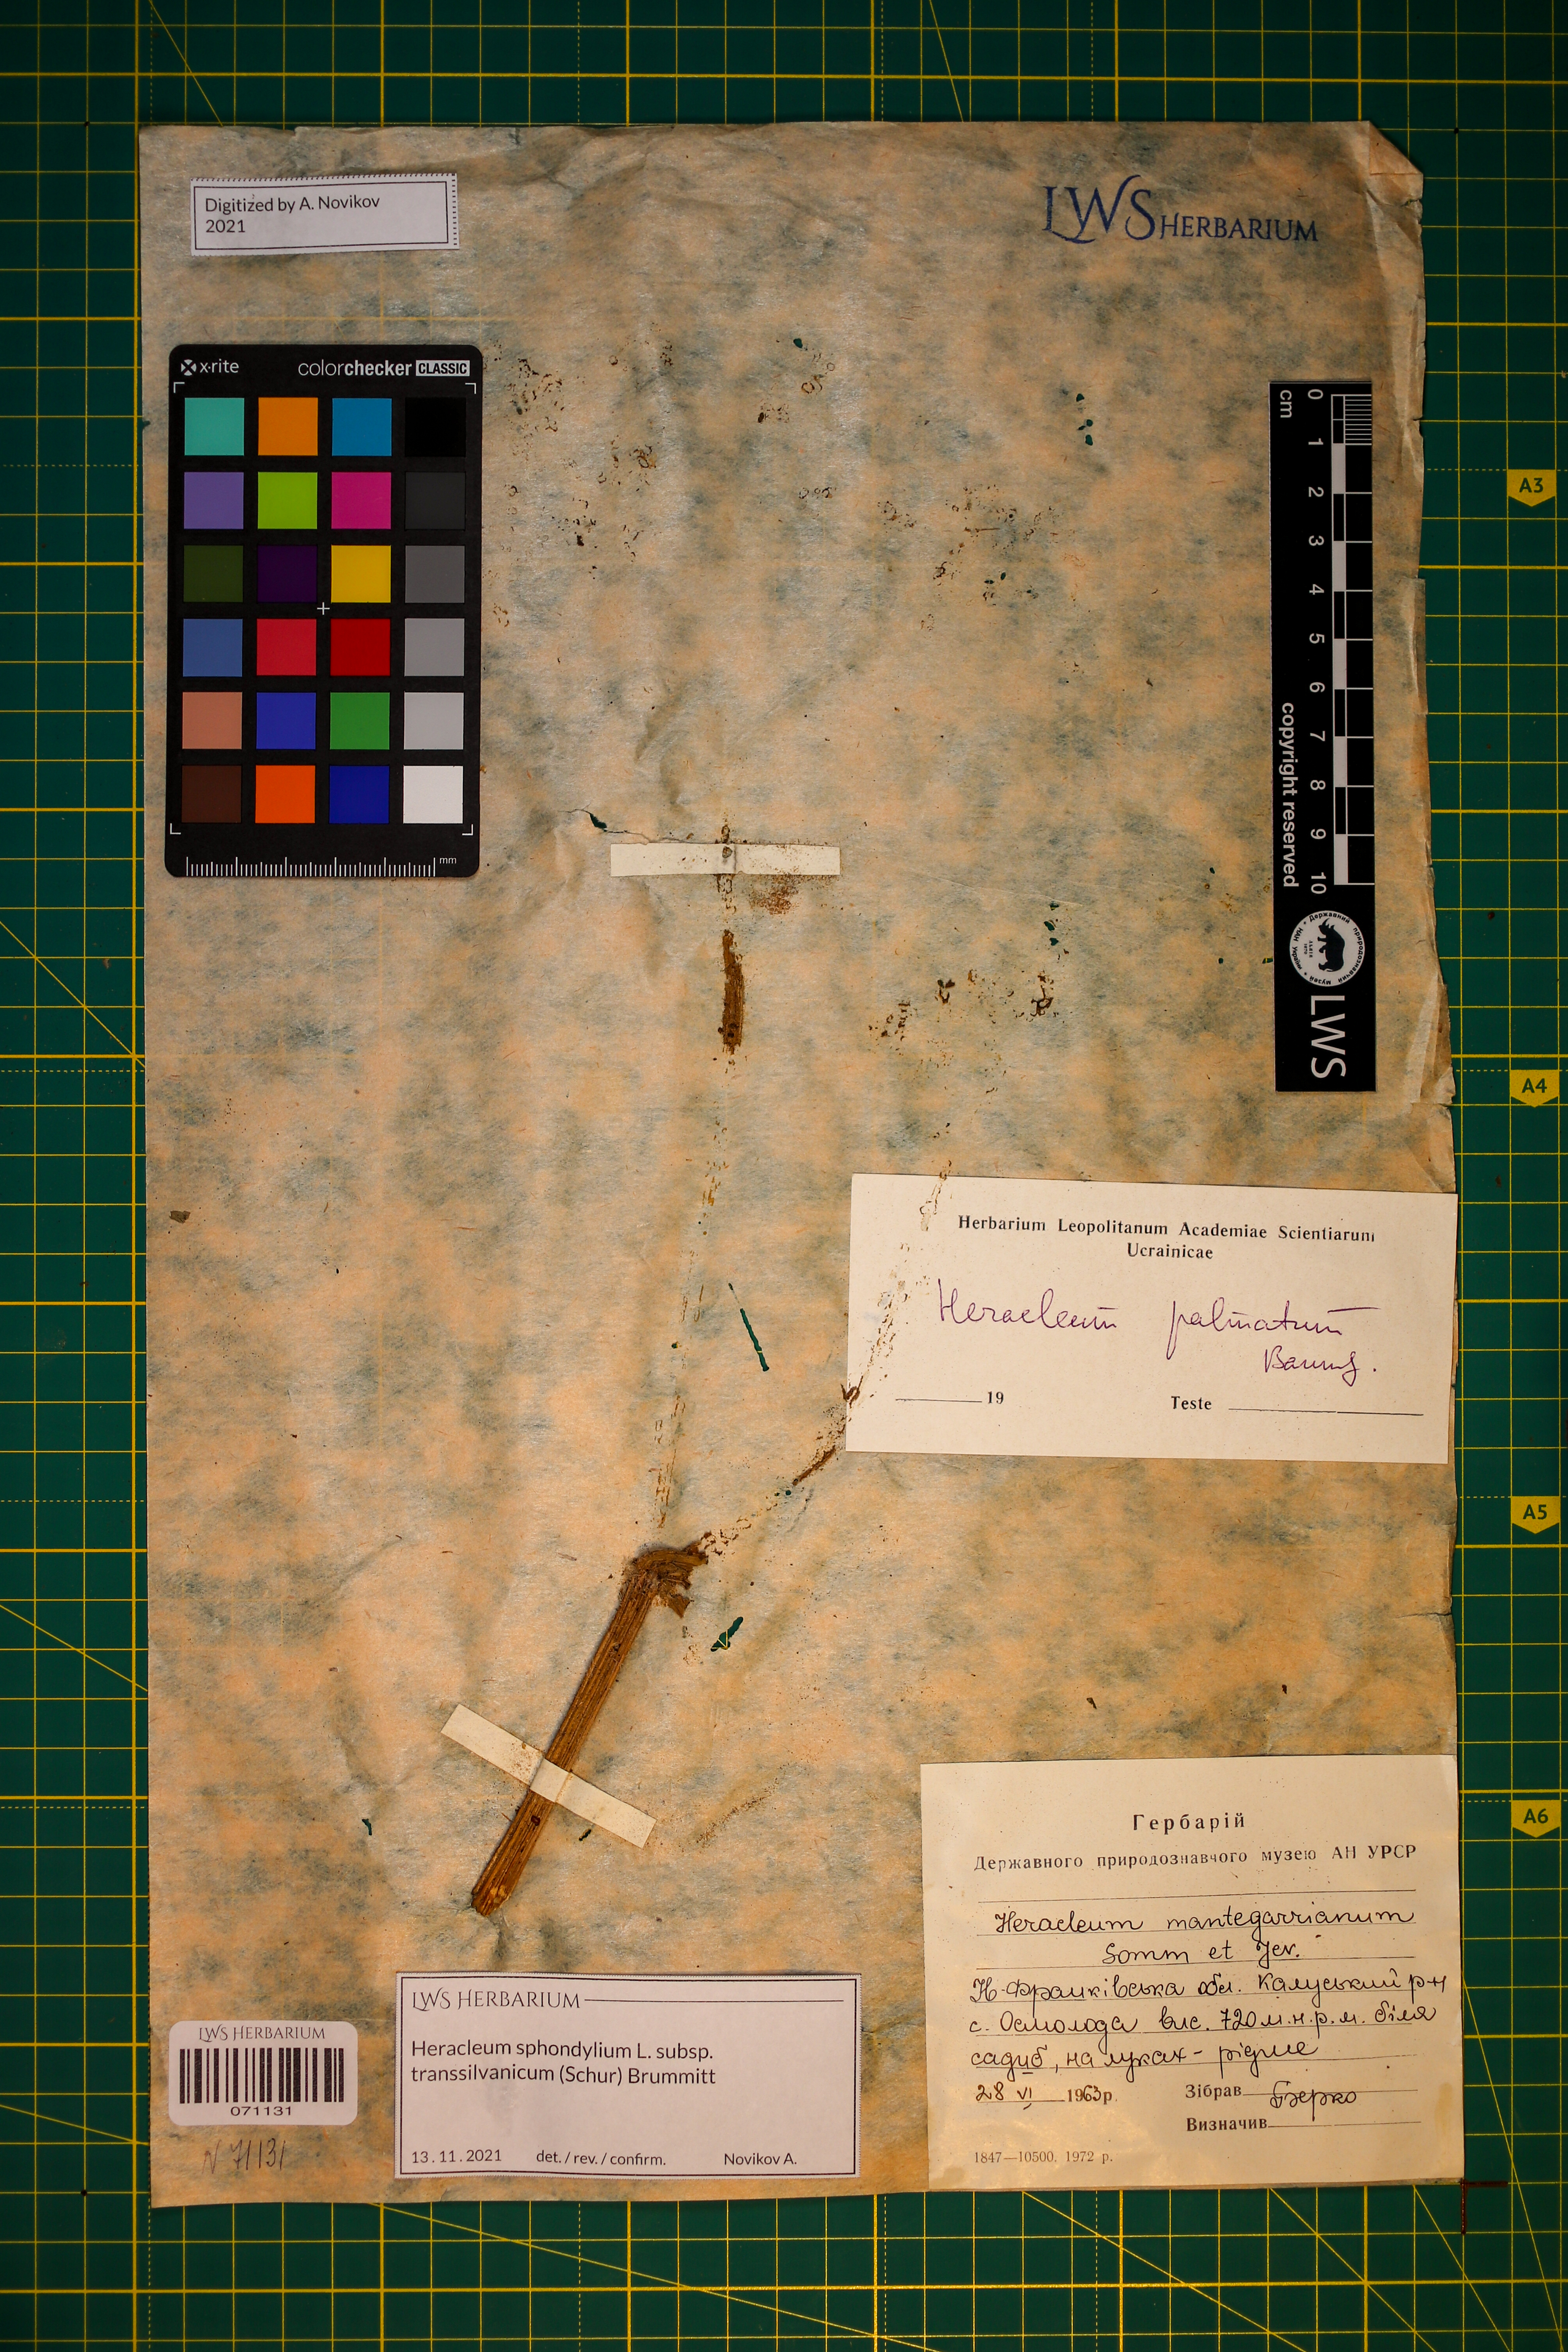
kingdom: Plantae
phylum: Tracheophyta
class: Magnoliopsida
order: Apiales
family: Apiaceae
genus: Heracleum
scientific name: Heracleum sphondylium
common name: Hogweed
